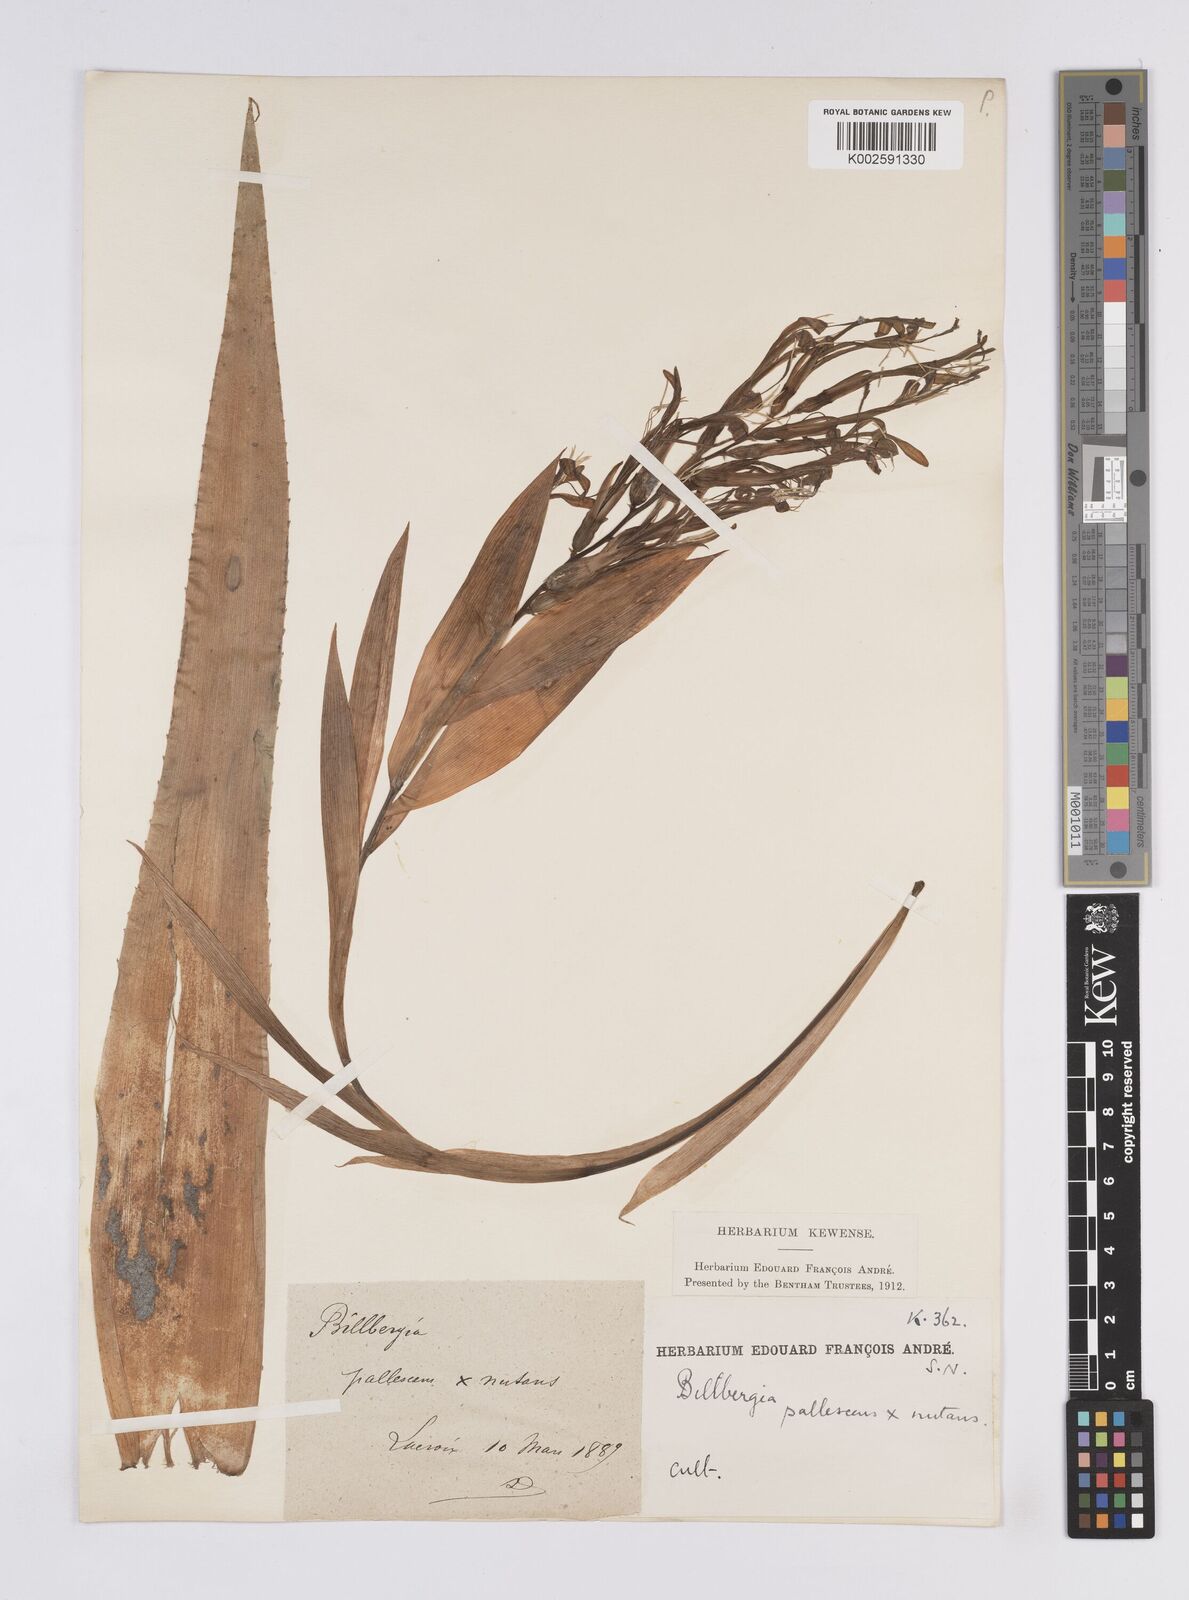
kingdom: Plantae
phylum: Tracheophyta
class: Liliopsida
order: Poales
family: Bromeliaceae
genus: Billbergia
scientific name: Billbergia nutans
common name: Friendship-plant
